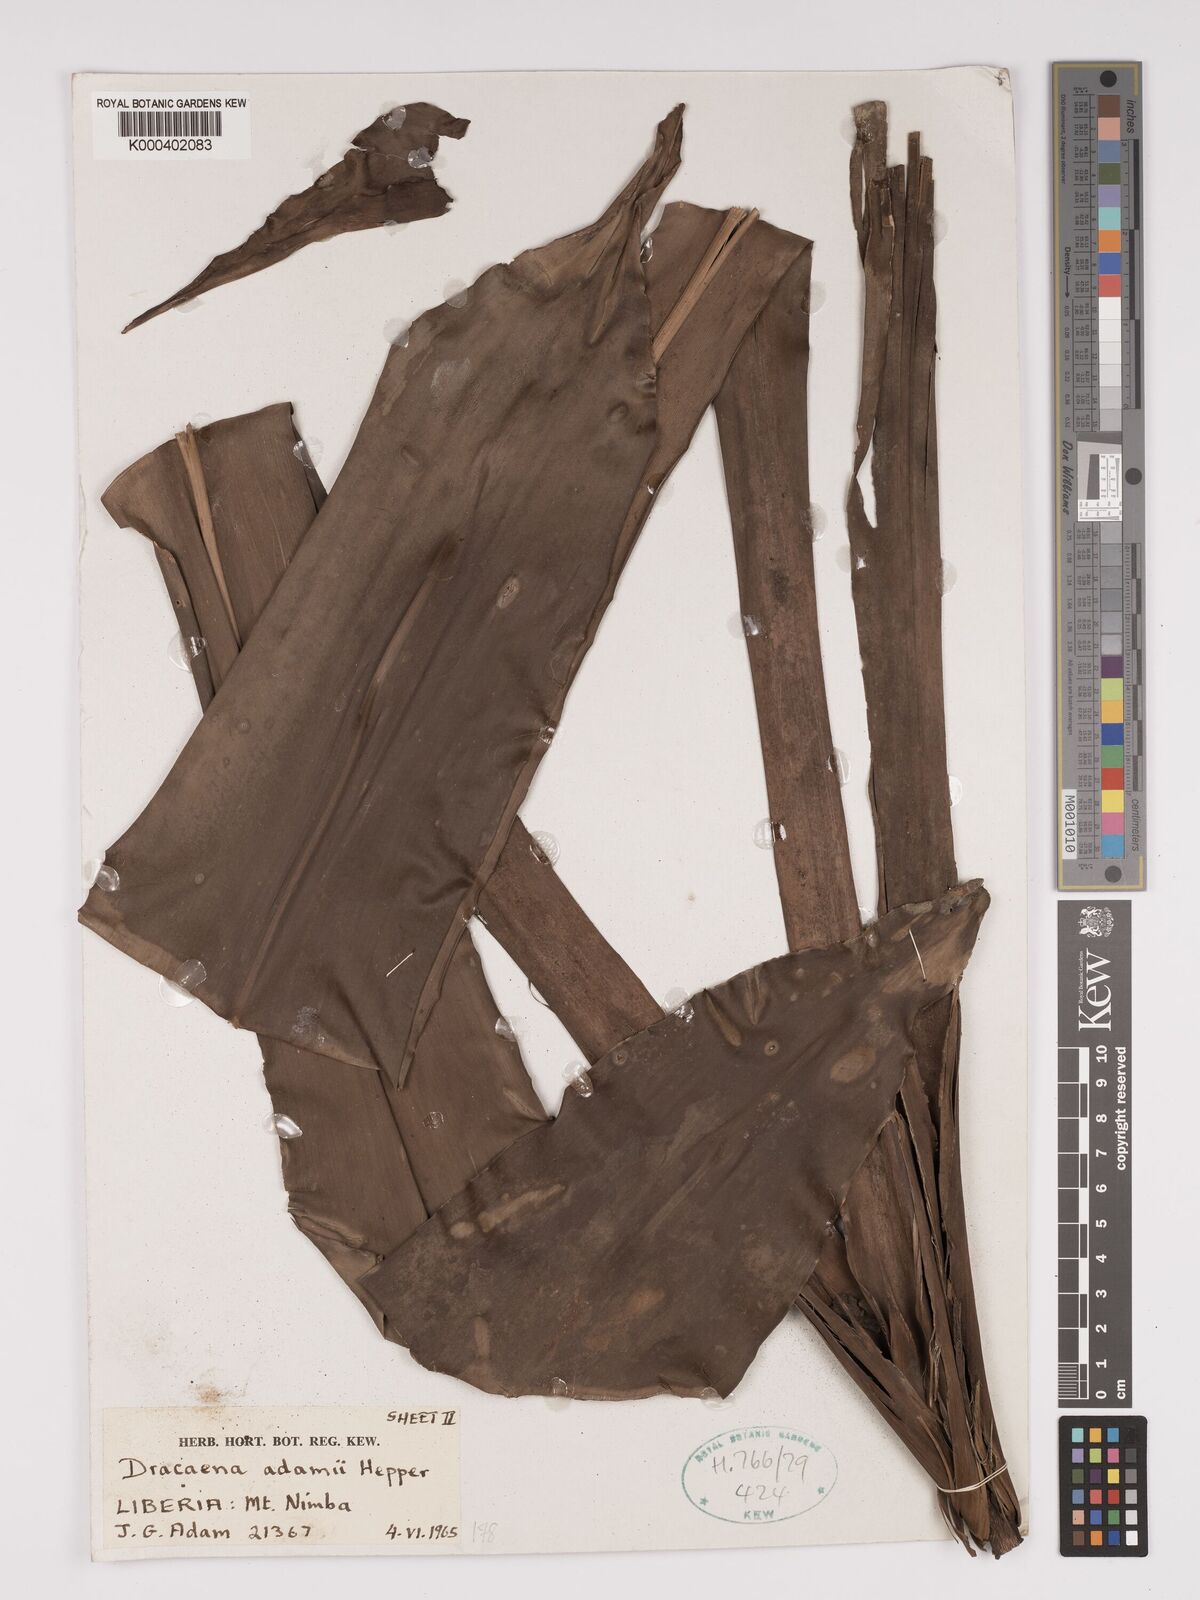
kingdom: Plantae
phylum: Tracheophyta
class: Liliopsida
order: Asparagales
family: Asparagaceae
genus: Dracaena
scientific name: Dracaena adamii
